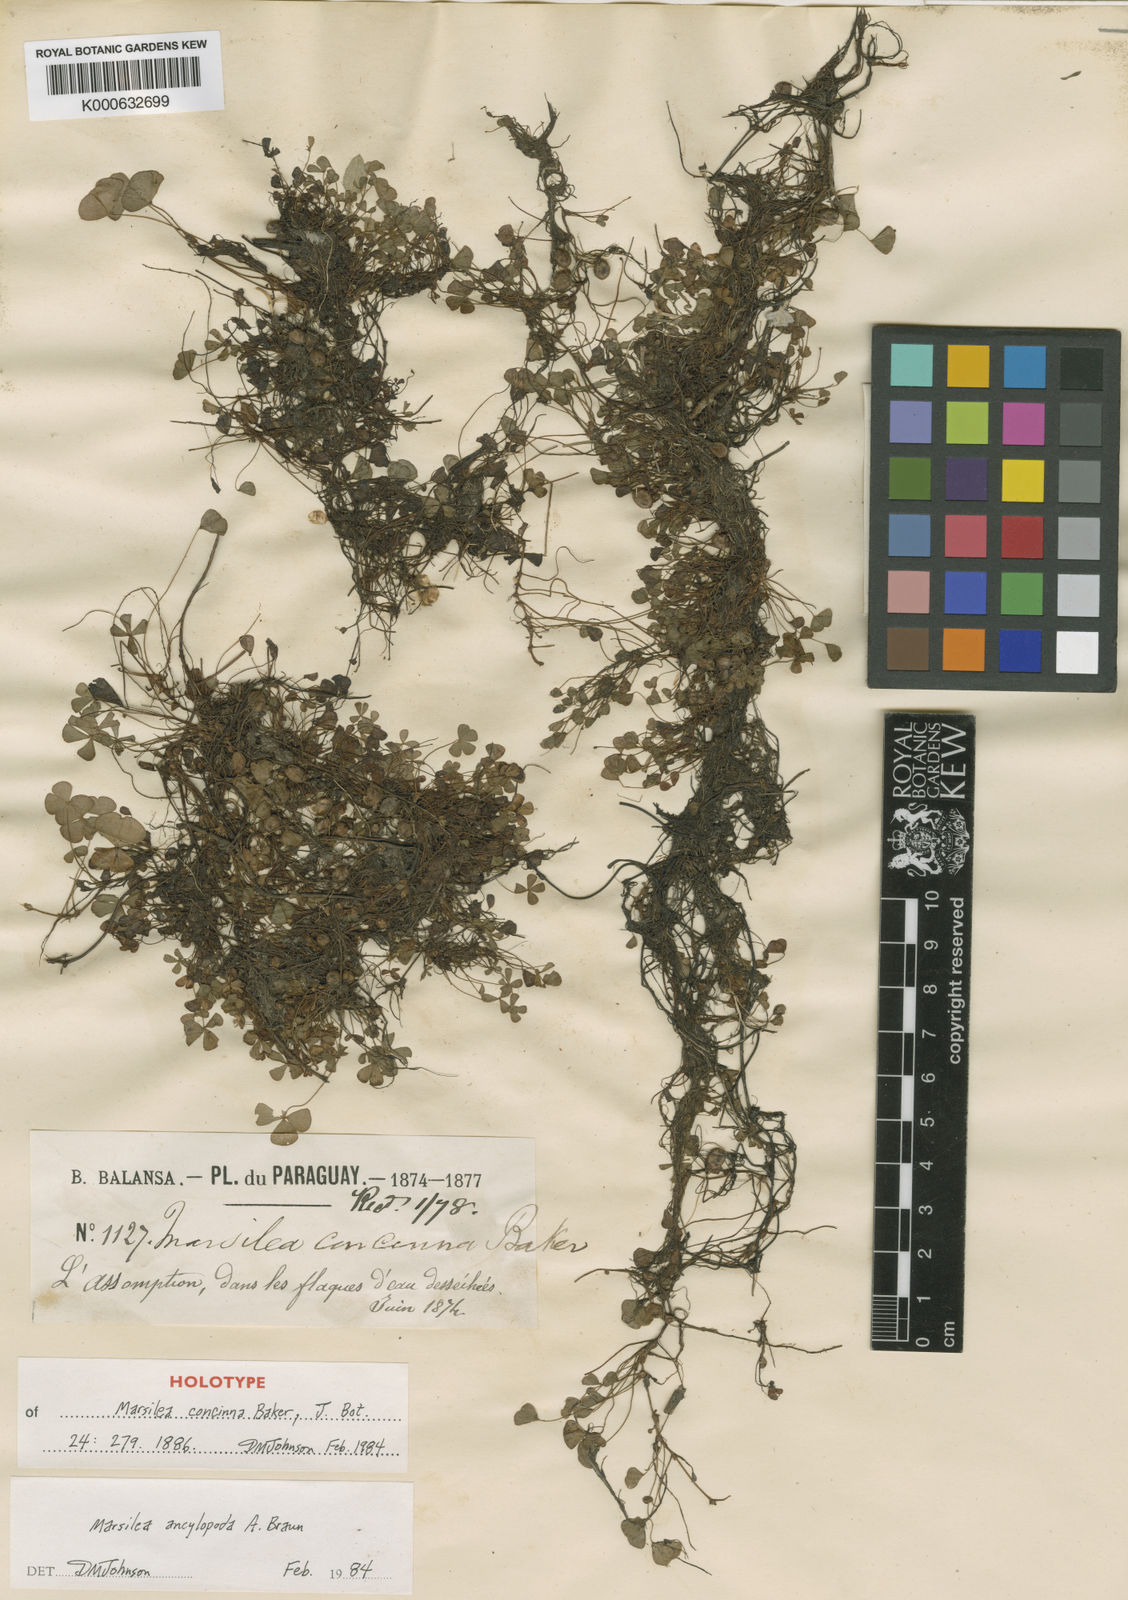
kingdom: Plantae
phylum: Tracheophyta
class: Polypodiopsida
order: Salviniales
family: Marsileaceae
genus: Marsilea
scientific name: Marsilea
